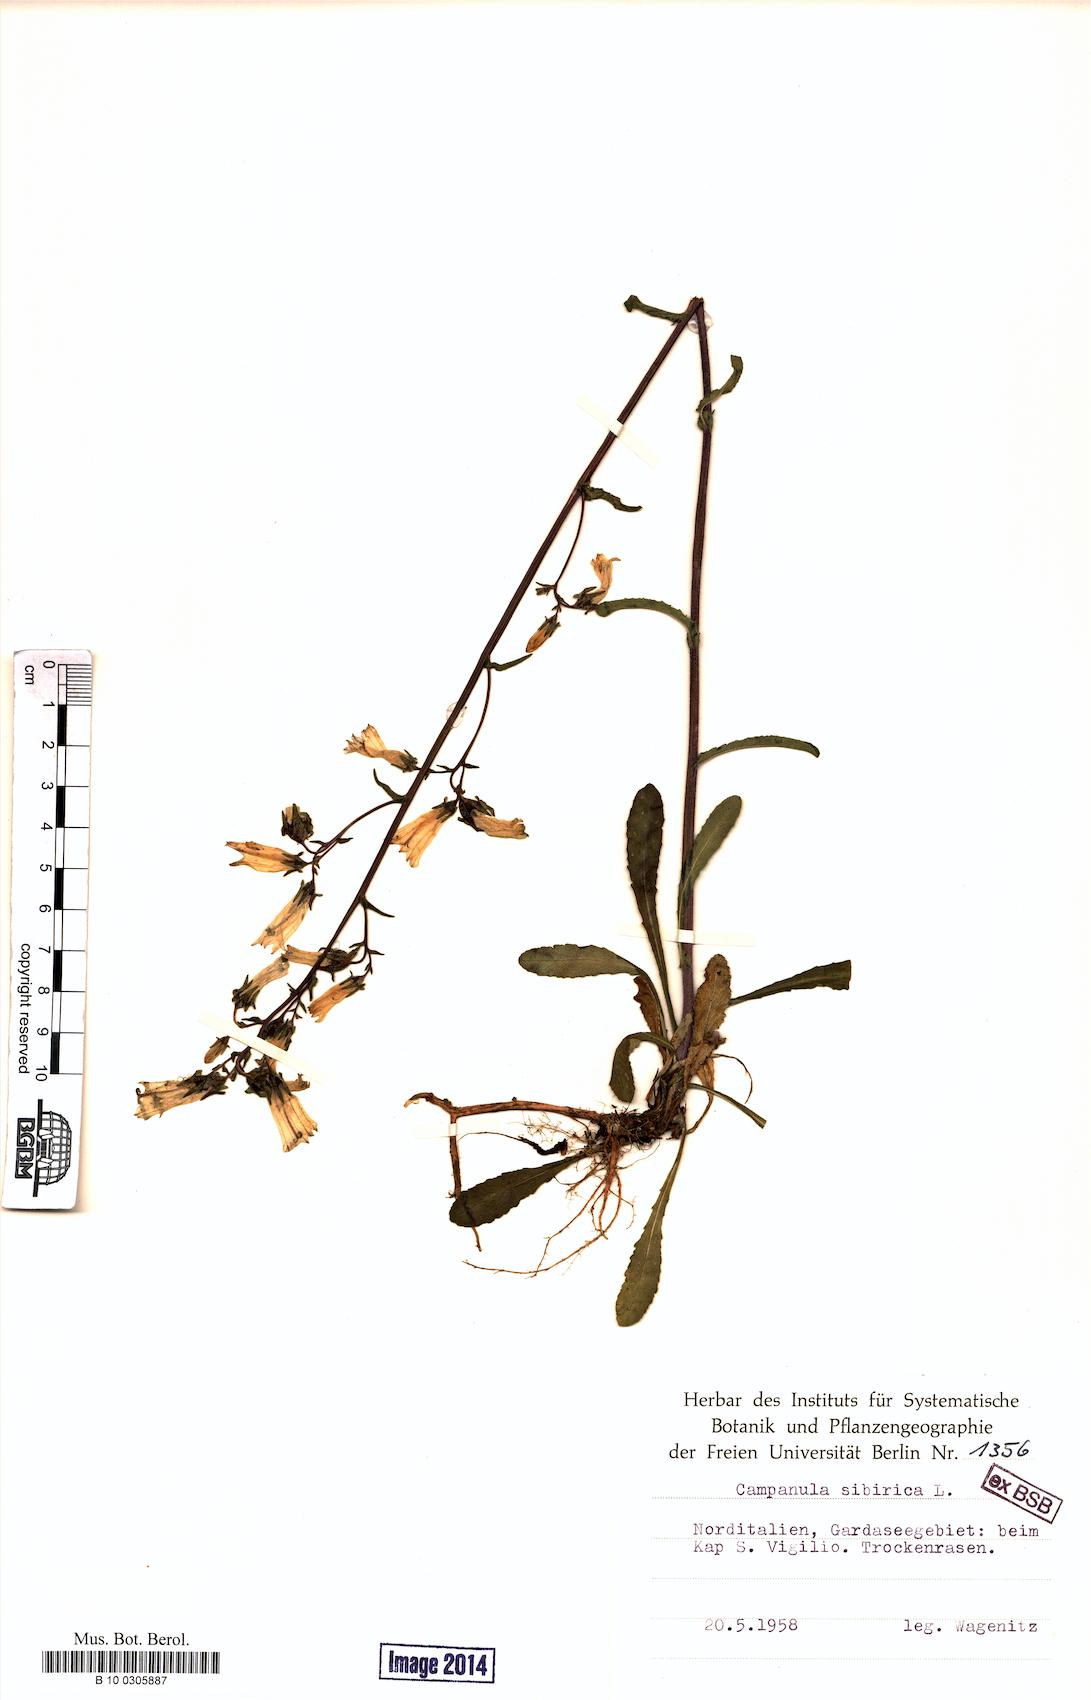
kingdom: Plantae
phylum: Tracheophyta
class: Magnoliopsida
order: Asterales
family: Campanulaceae
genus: Campanula
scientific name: Campanula sibirica
